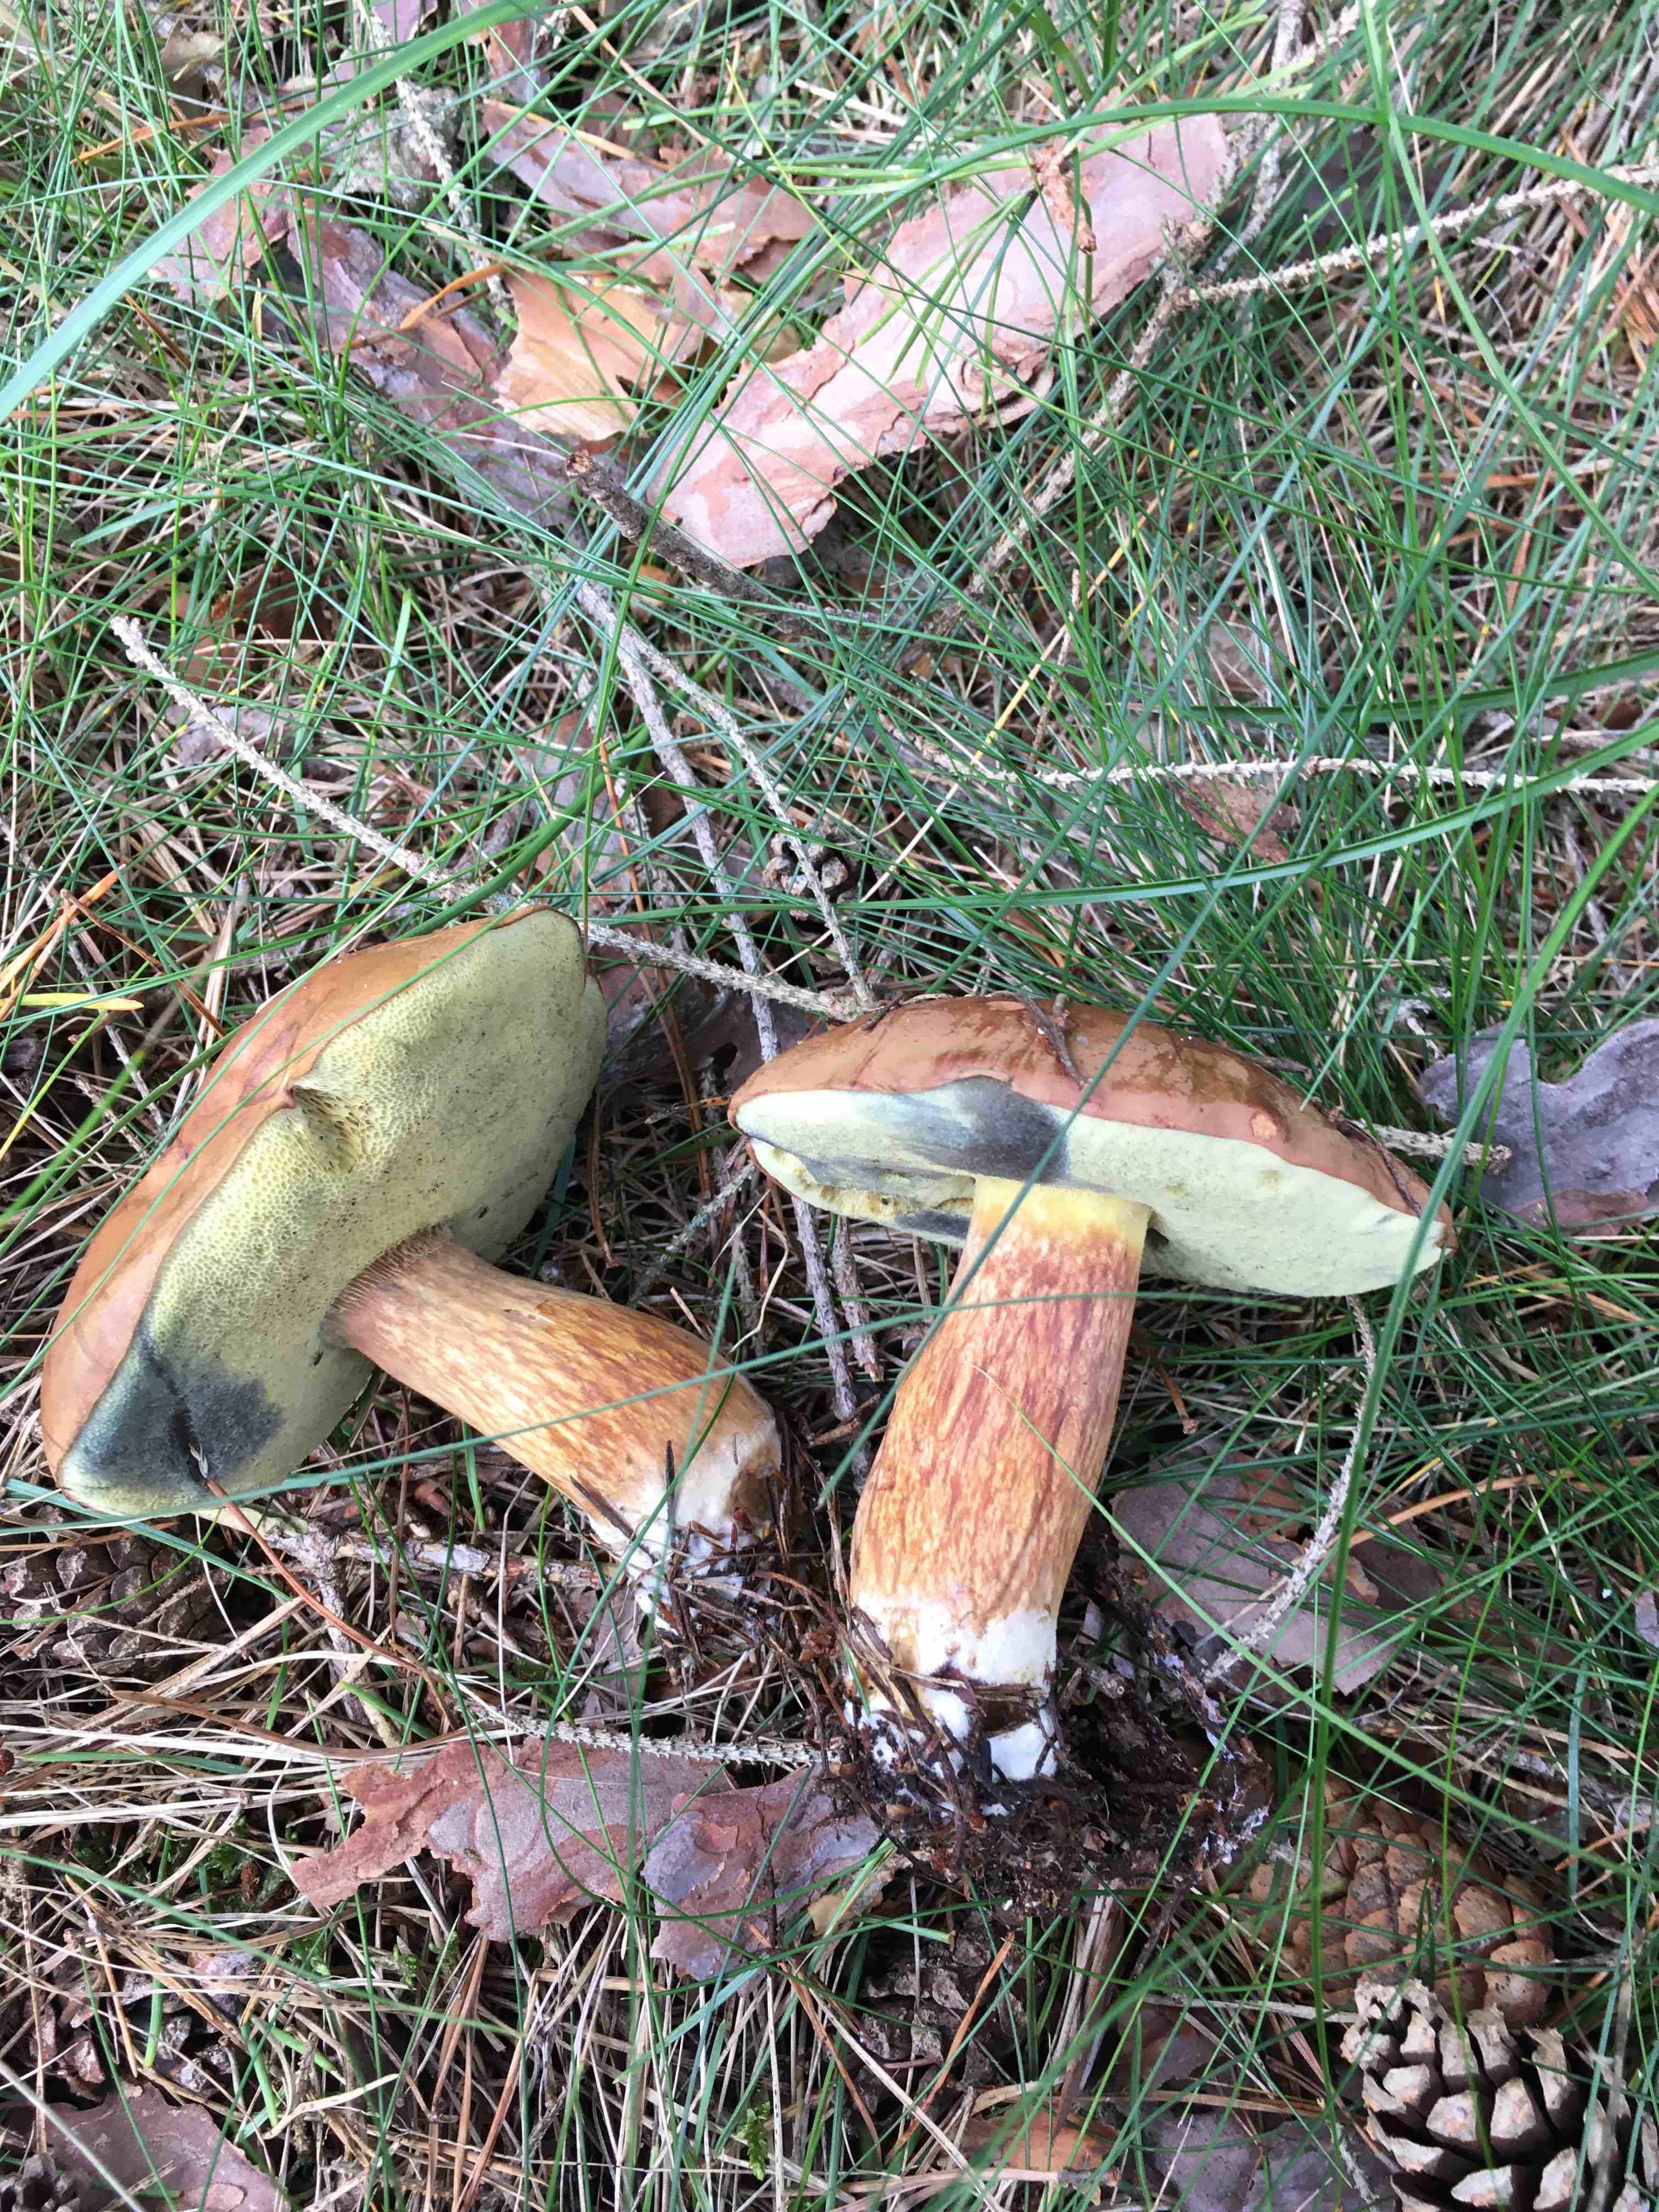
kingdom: Fungi
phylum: Basidiomycota
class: Agaricomycetes
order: Boletales
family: Boletaceae
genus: Imleria
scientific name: Imleria badia
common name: brunstokket rørhat
